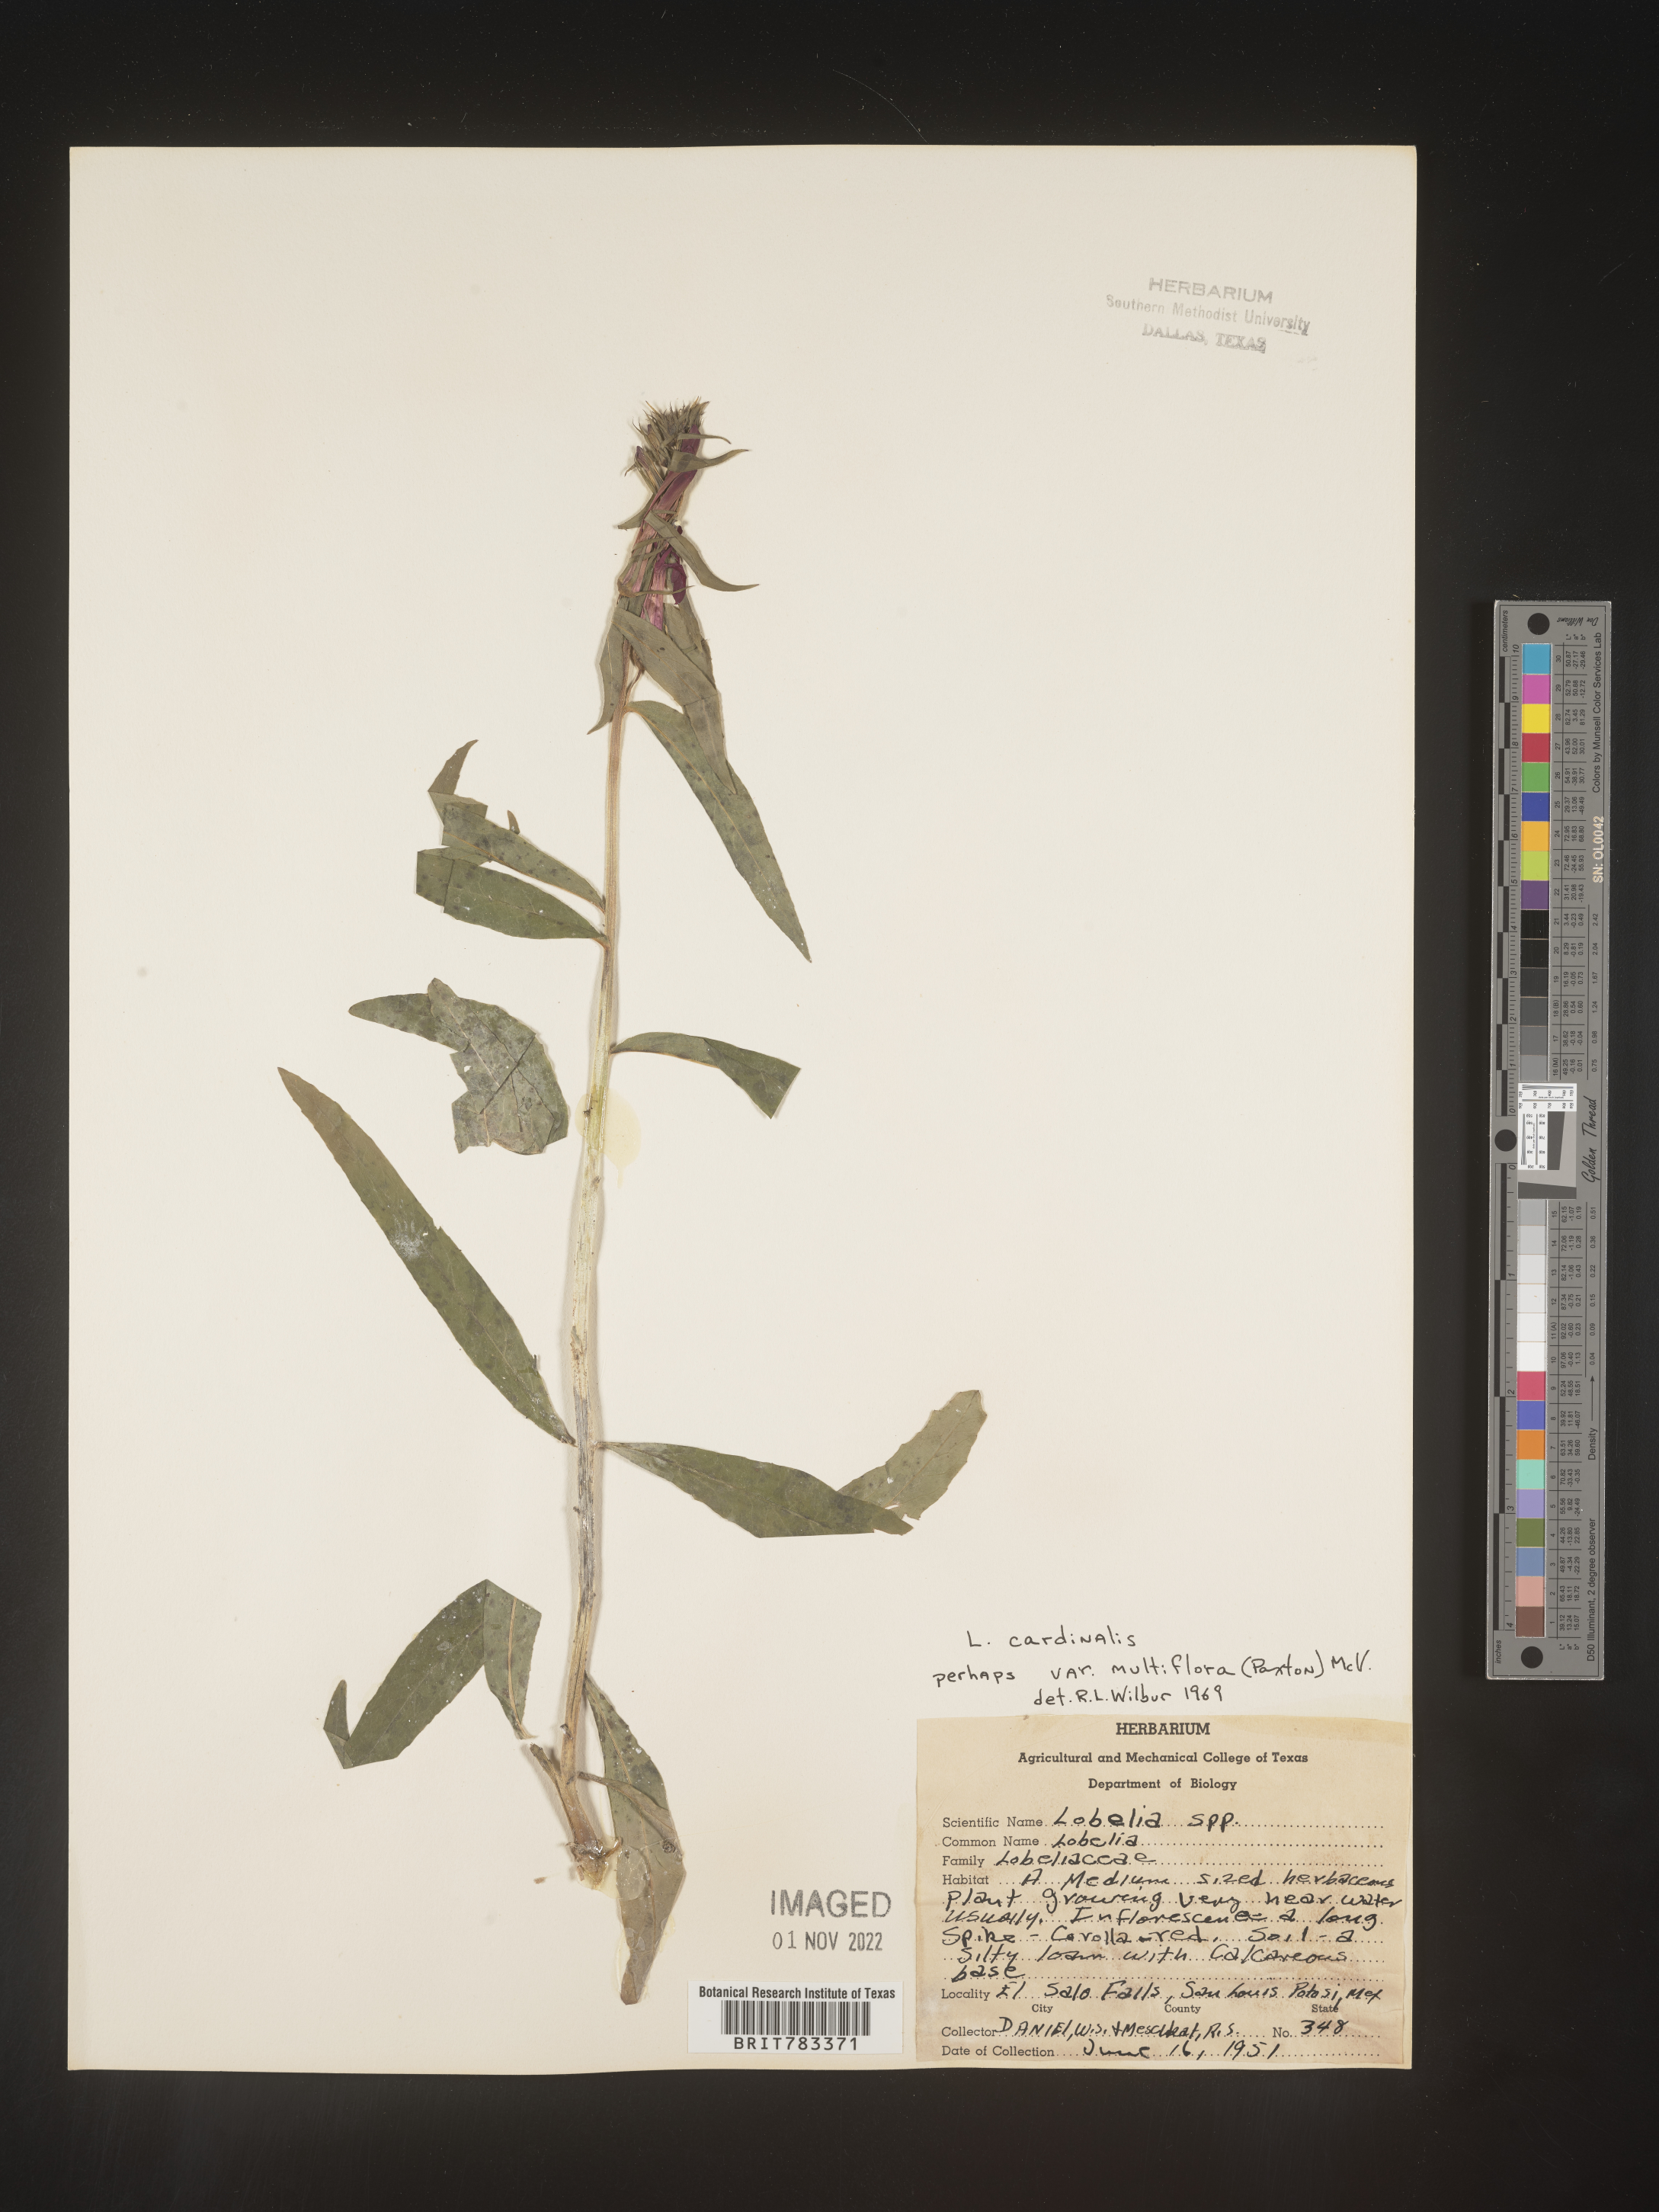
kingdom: Plantae
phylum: Tracheophyta
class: Magnoliopsida
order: Asterales
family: Campanulaceae
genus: Lobelia
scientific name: Lobelia
